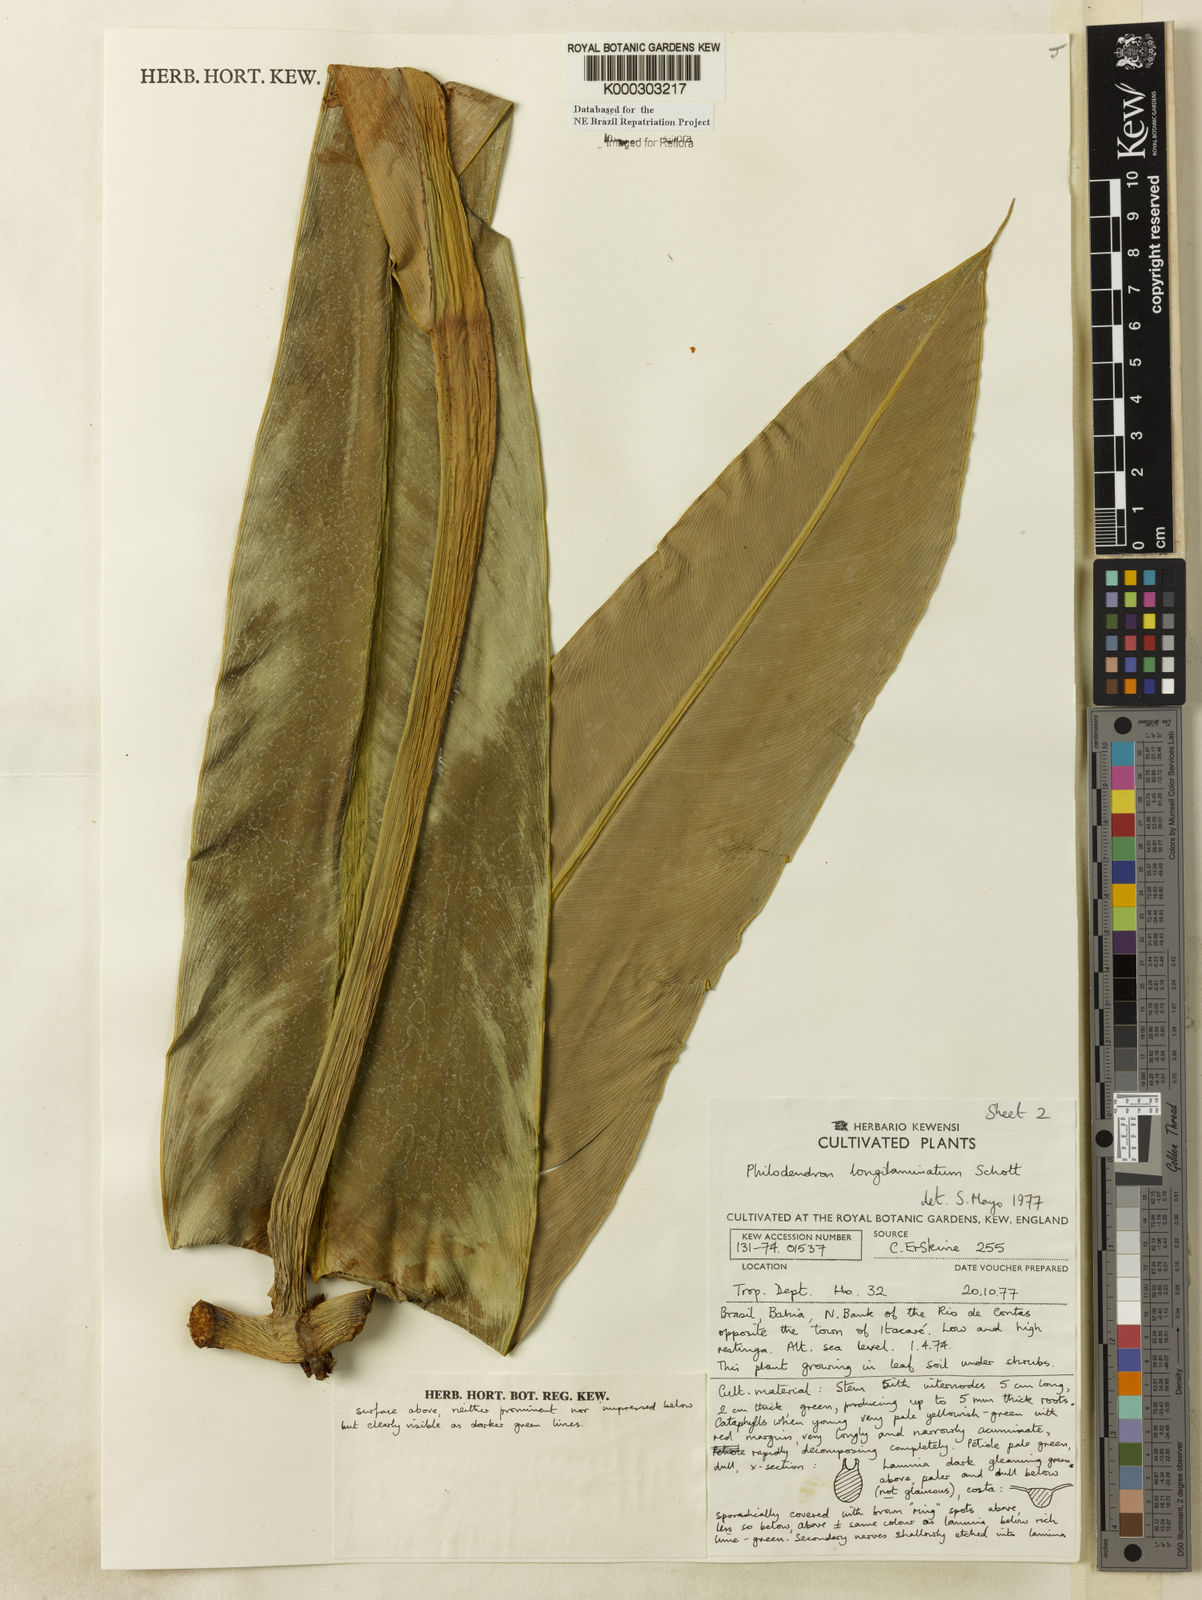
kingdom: Plantae
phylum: Tracheophyta
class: Liliopsida
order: Alismatales
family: Araceae
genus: Philodendron
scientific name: Philodendron longilaminatum
